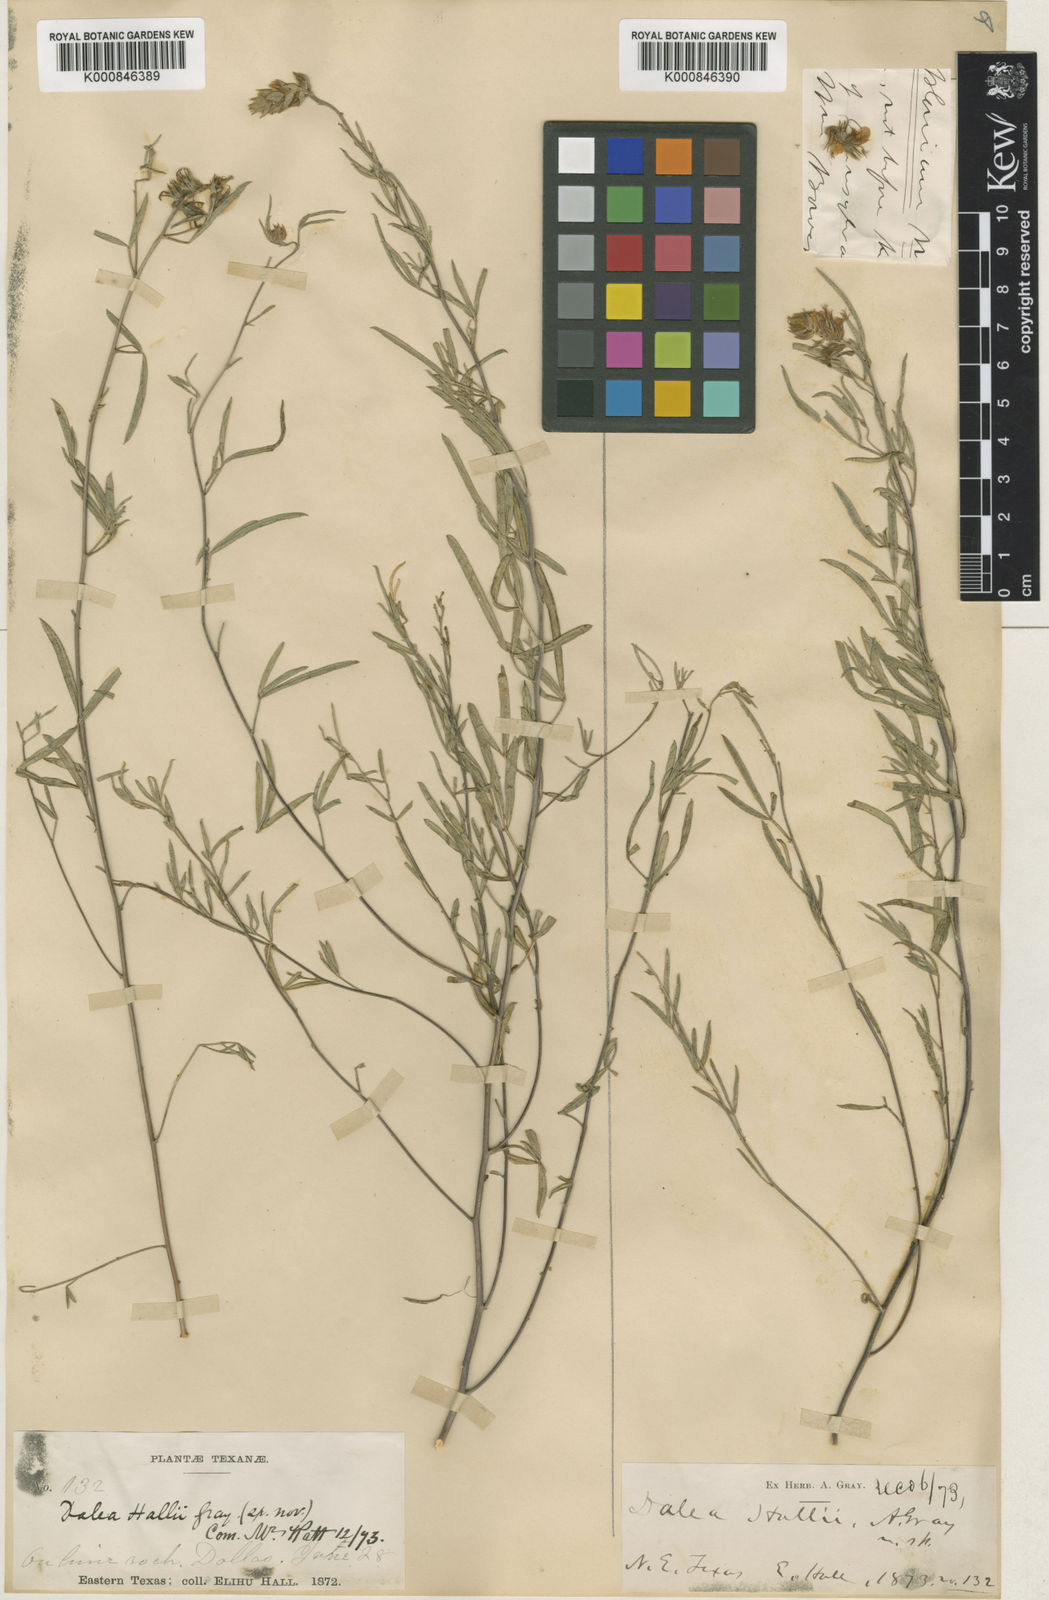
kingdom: Plantae
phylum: Tracheophyta
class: Magnoliopsida
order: Fabales
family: Fabaceae
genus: Dalea
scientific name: Dalea hallii
